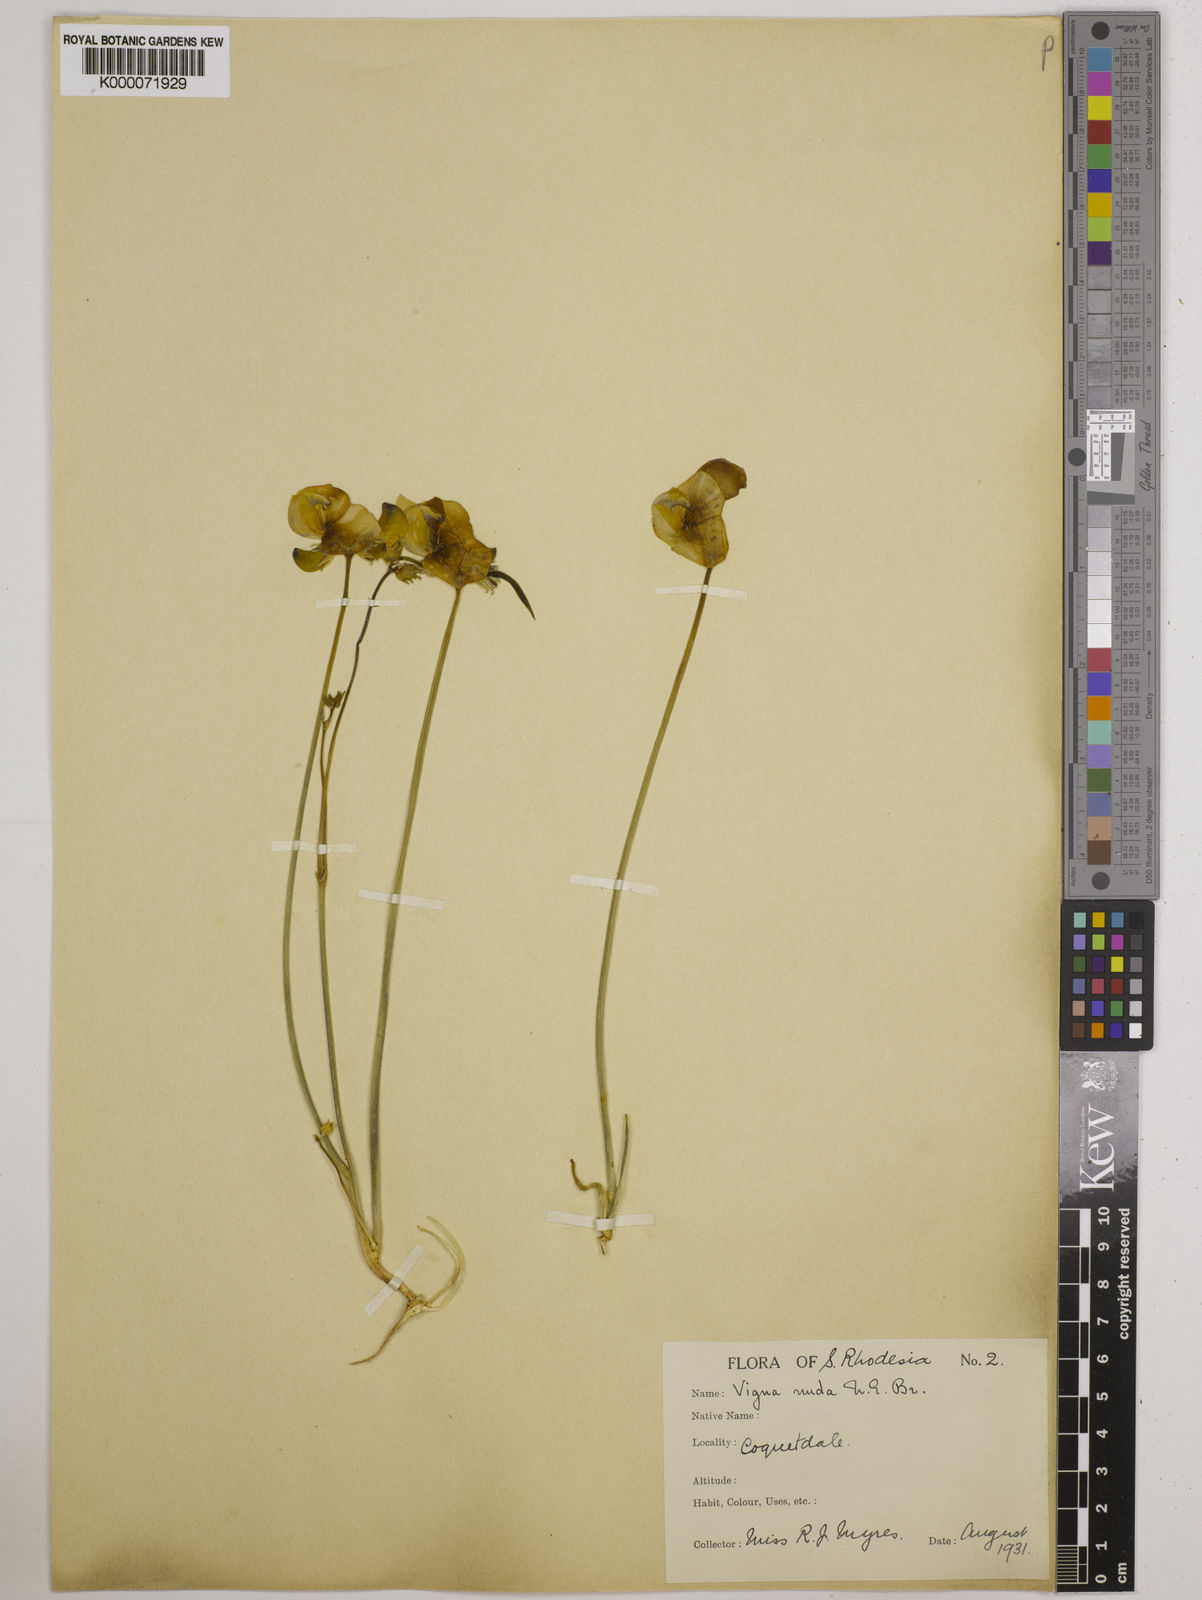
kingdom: Plantae
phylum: Tracheophyta
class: Magnoliopsida
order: Fabales
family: Fabaceae
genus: Vigna
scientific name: Vigna antunesii
